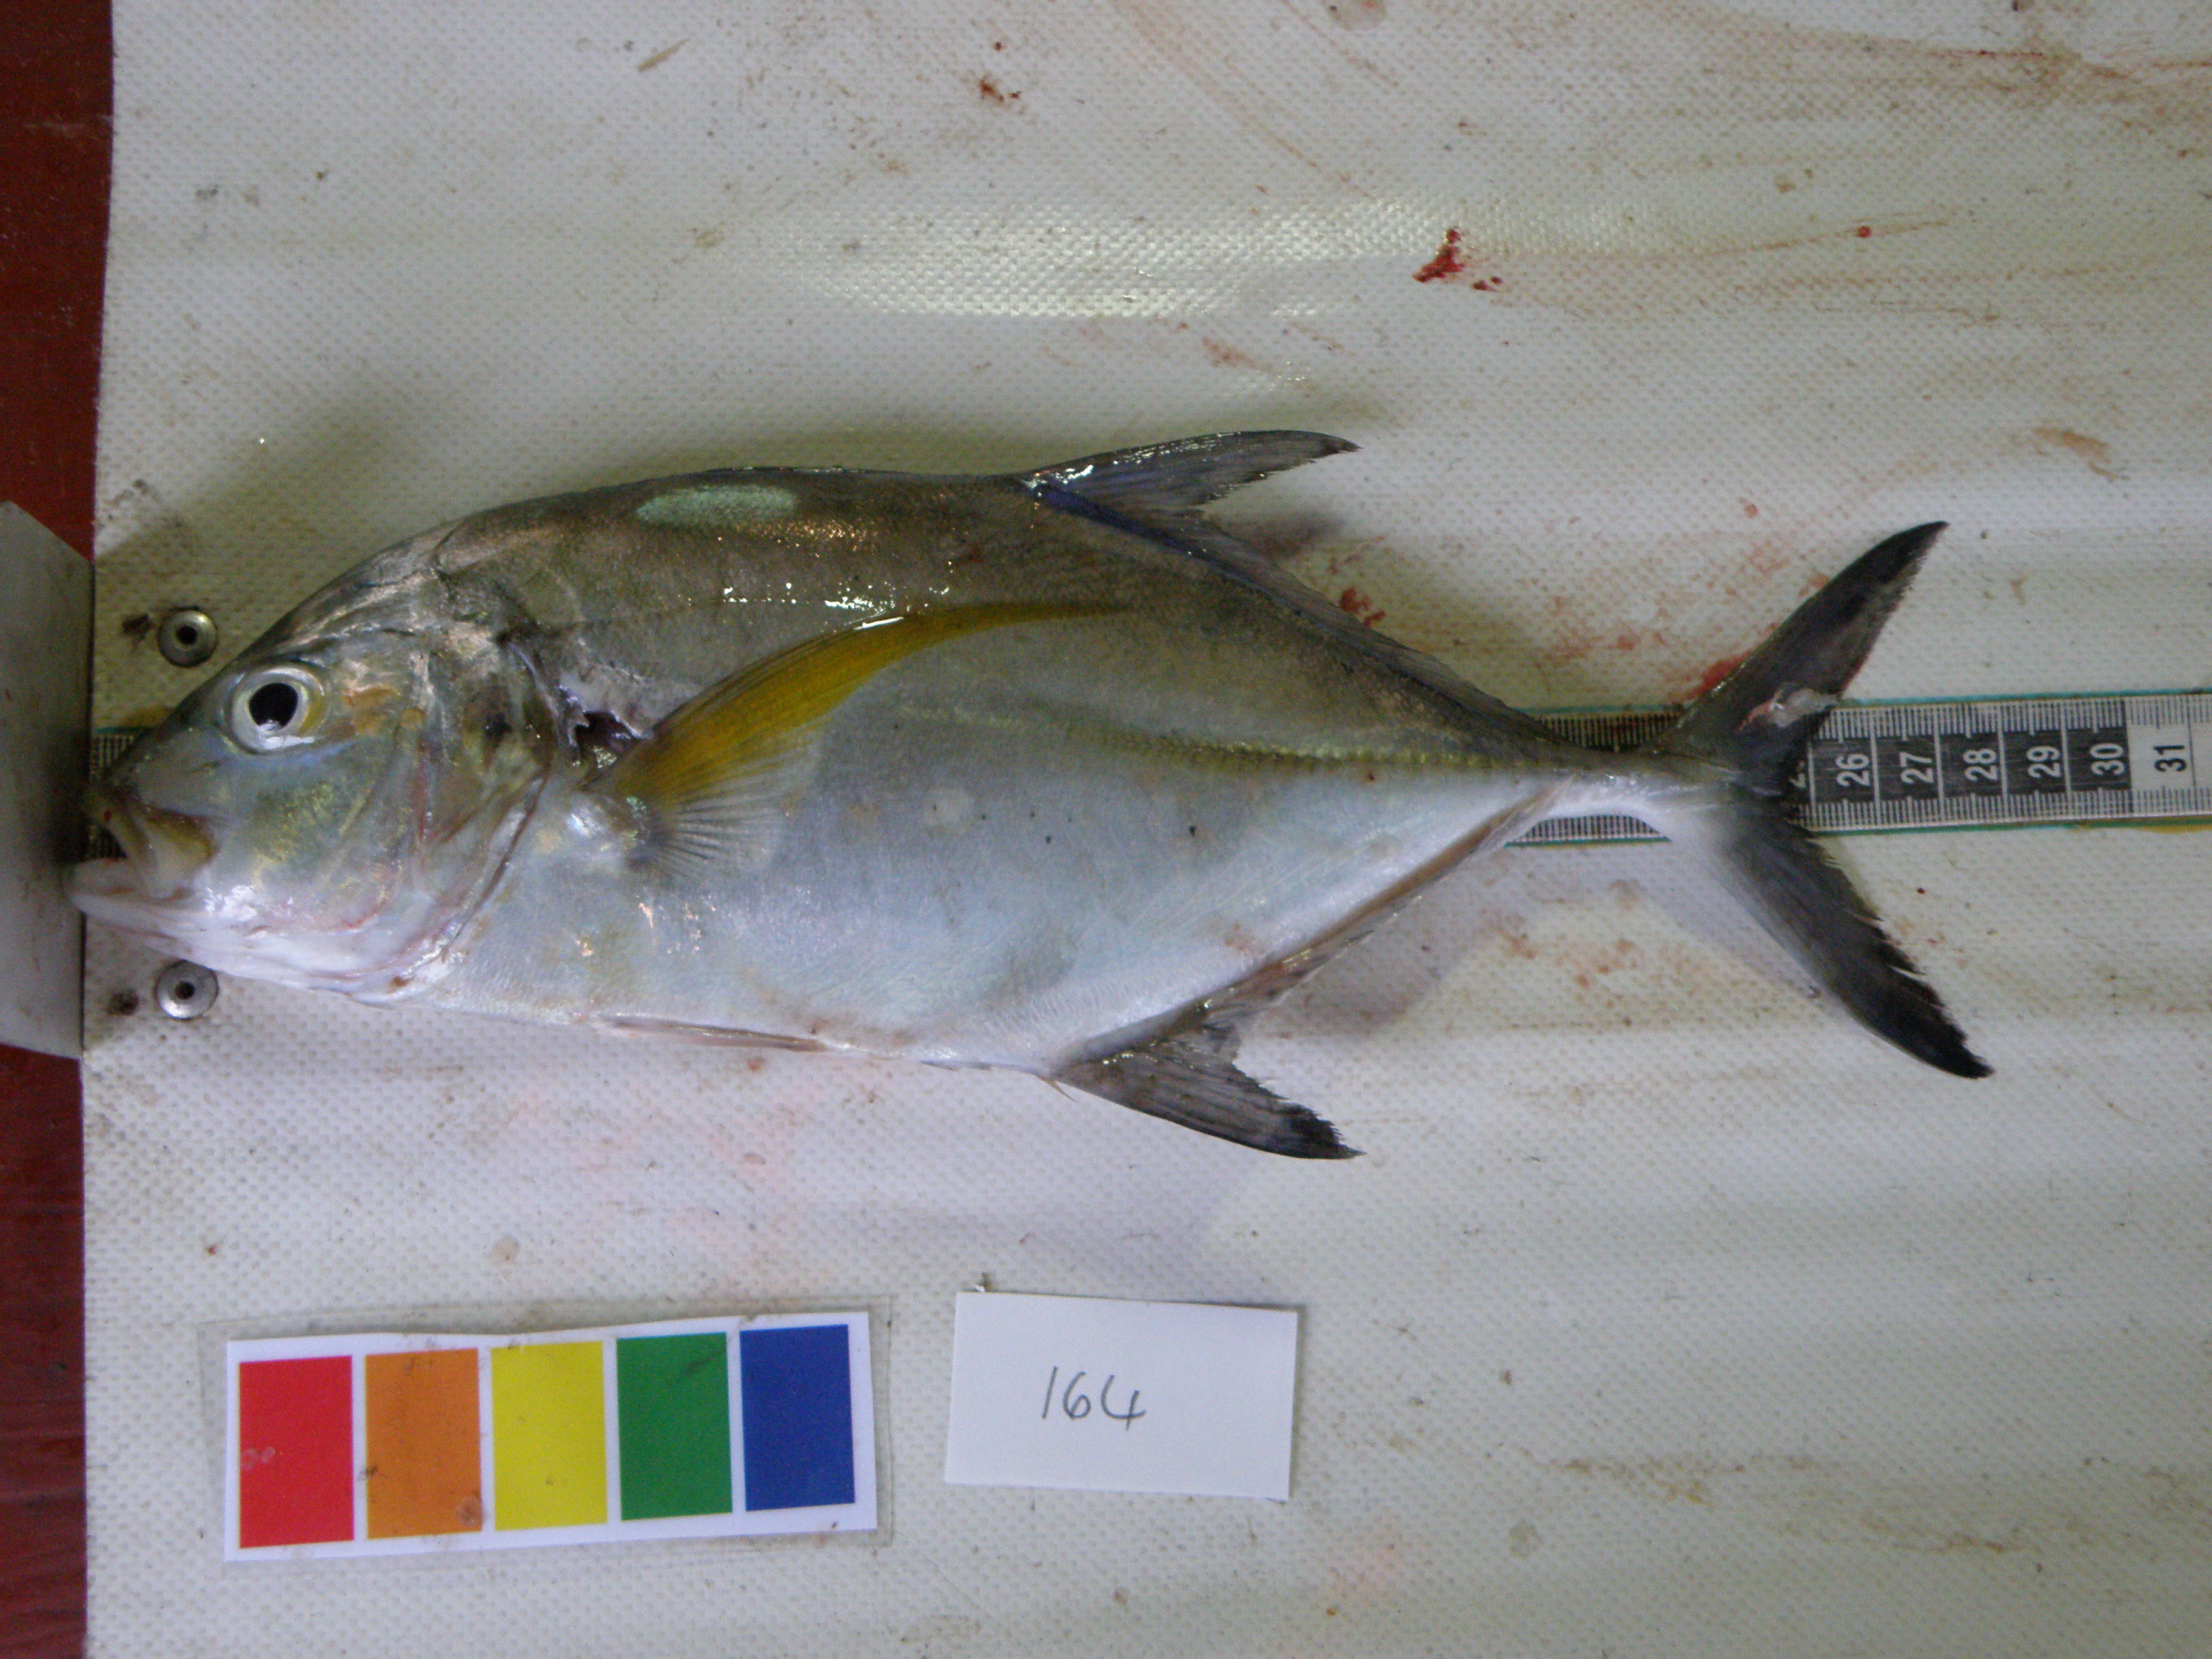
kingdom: Animalia
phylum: Chordata
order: Perciformes
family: Carangidae
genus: Caranx
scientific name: Caranx
